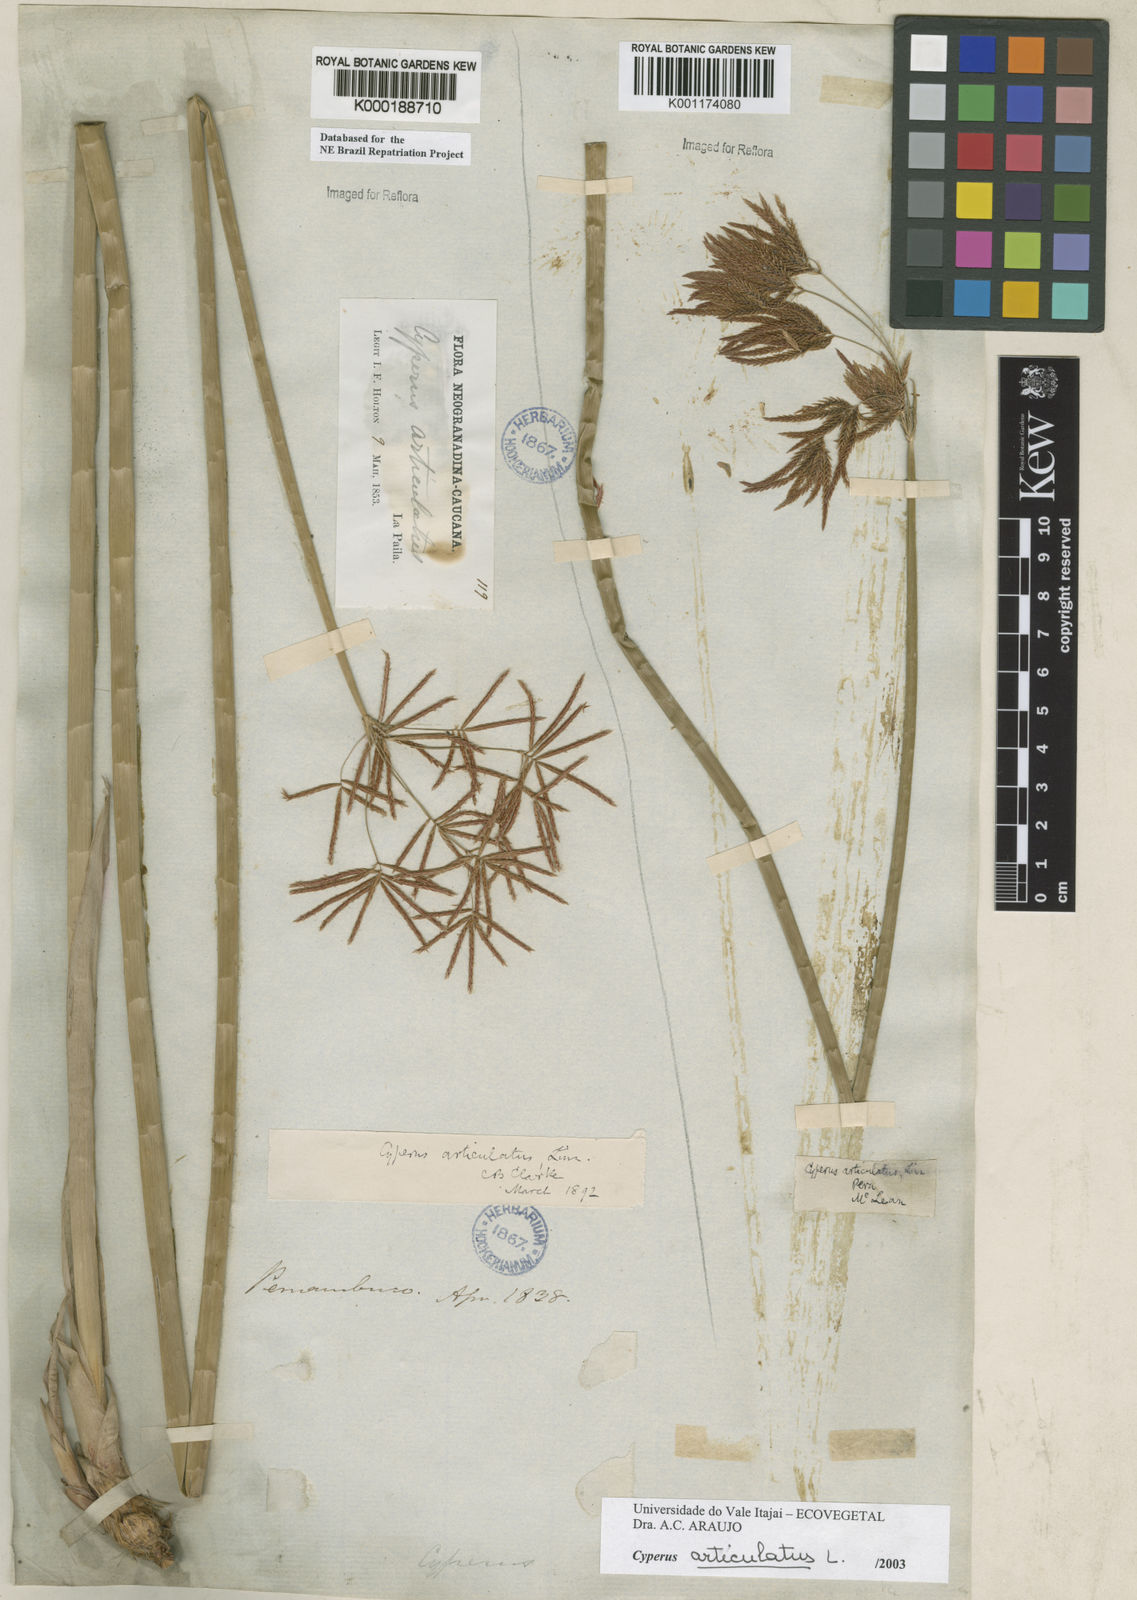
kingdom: Plantae
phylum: Tracheophyta
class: Liliopsida
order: Poales
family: Cyperaceae
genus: Cyperus
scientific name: Cyperus articulatus
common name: Jointed flatsedge
